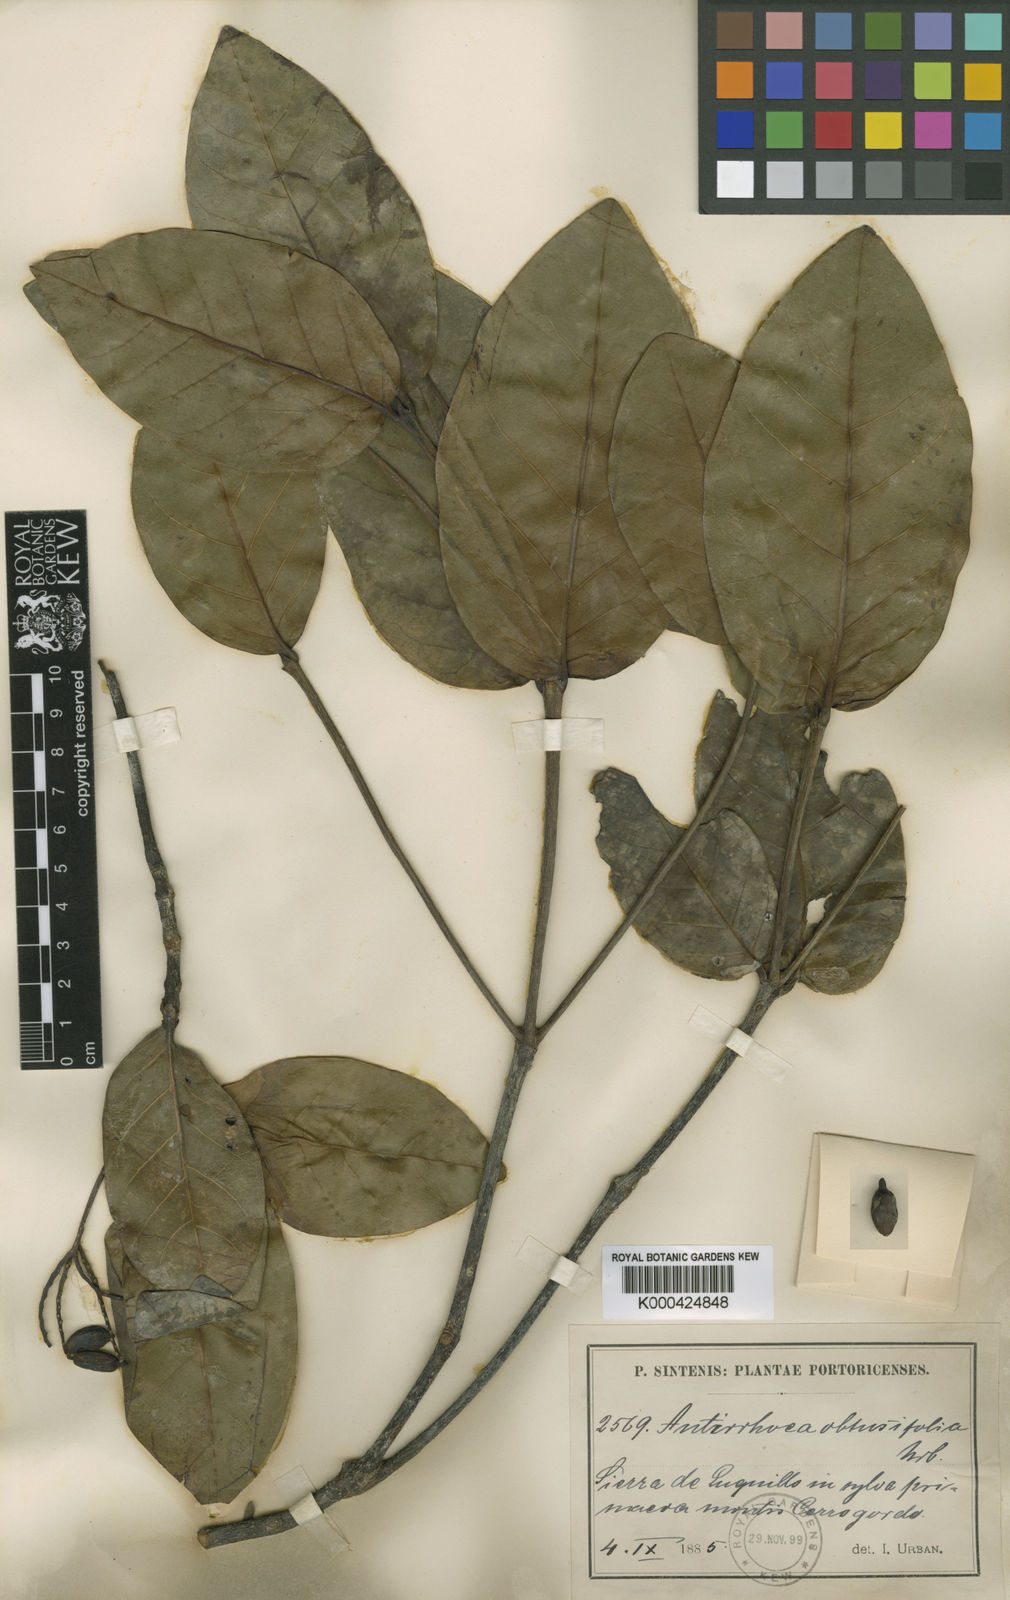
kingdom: Plantae
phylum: Tracheophyta
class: Magnoliopsida
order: Gentianales
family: Rubiaceae
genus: Stenostomum
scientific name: Stenostomum obtusifolium
